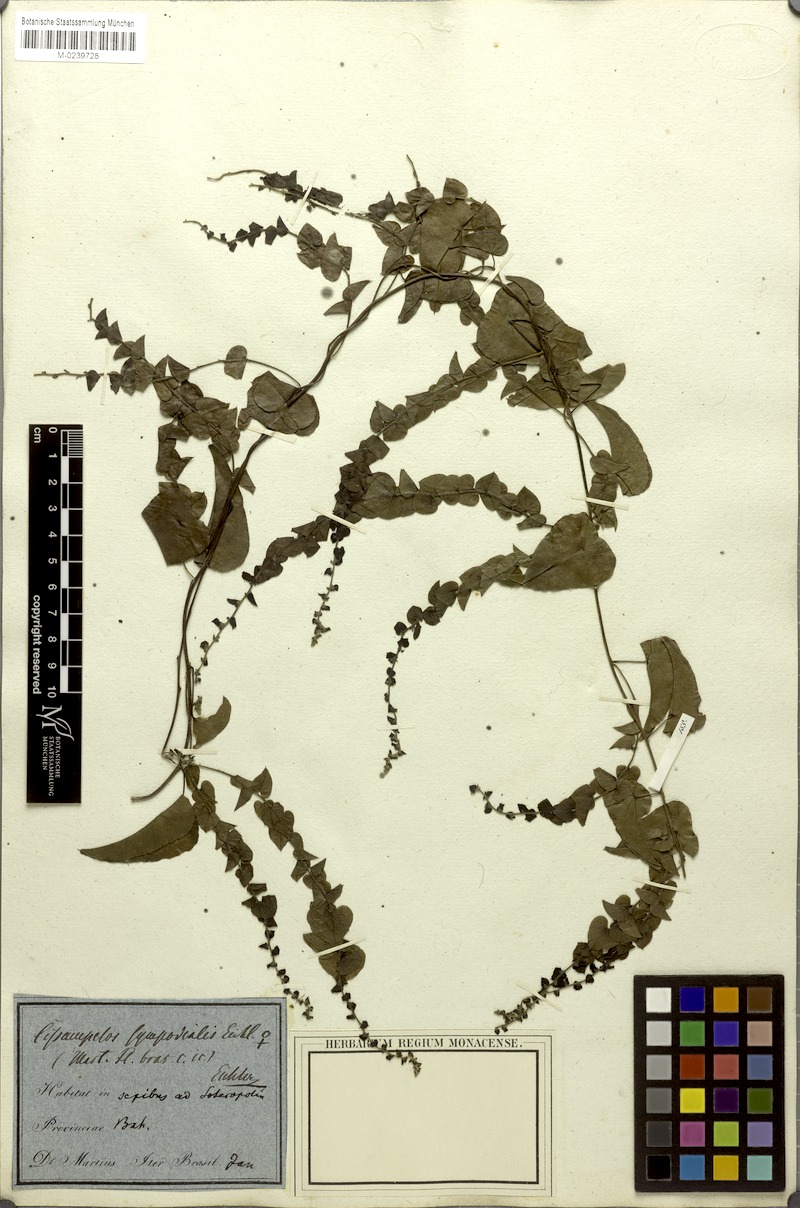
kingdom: Plantae
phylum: Tracheophyta
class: Magnoliopsida
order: Ranunculales
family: Menispermaceae
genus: Cissampelos
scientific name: Cissampelos sympodialis
